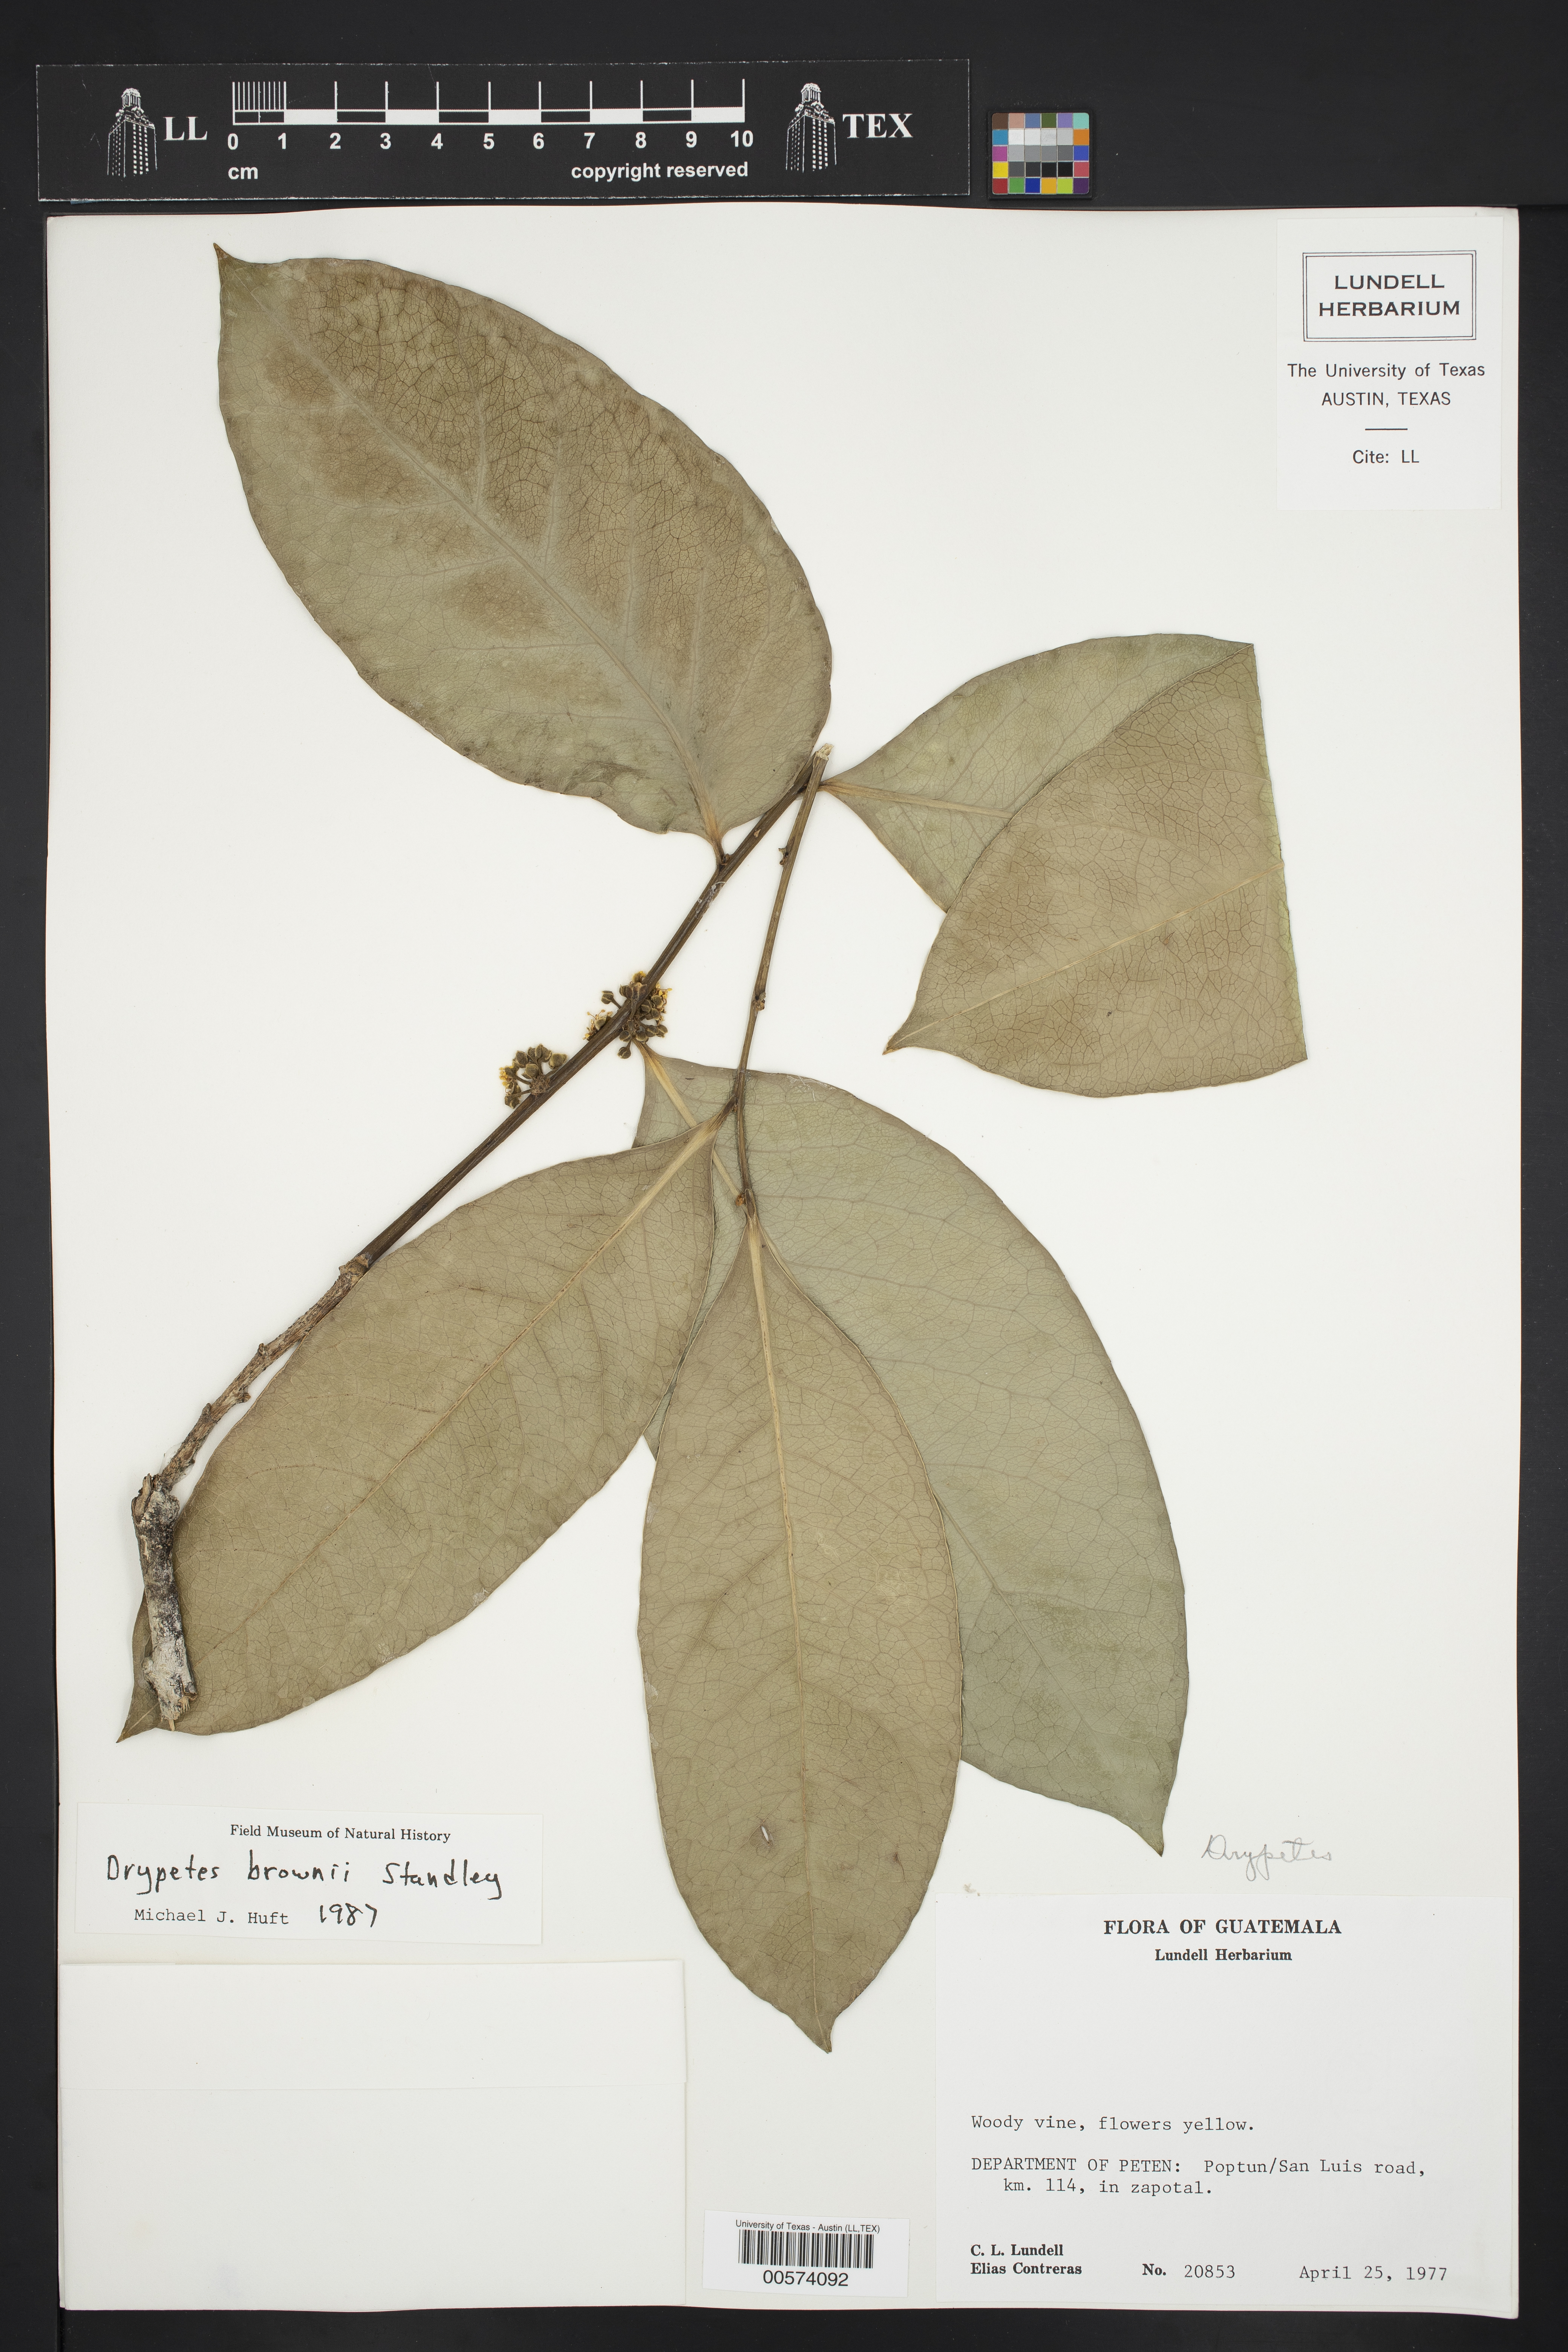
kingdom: Plantae
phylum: Tracheophyta
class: Magnoliopsida
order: Malpighiales
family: Putranjivaceae
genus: Drypetes
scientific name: Drypetes brownii
